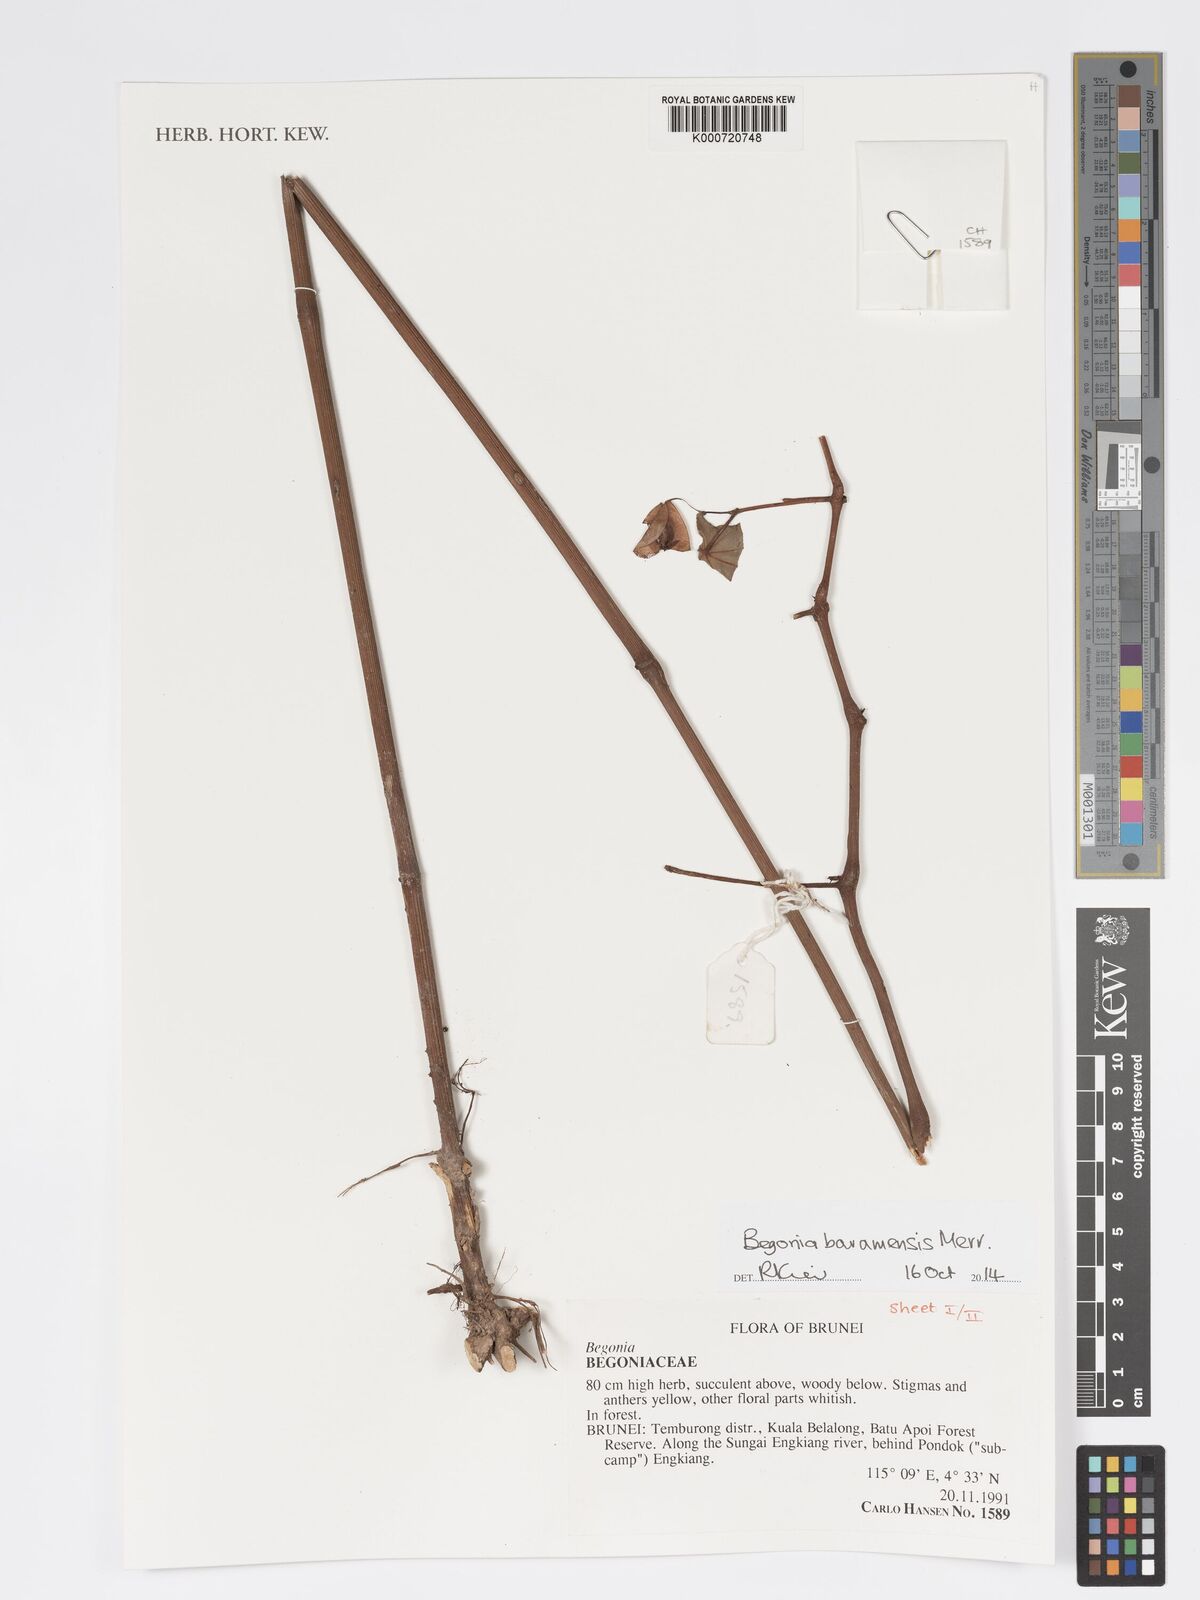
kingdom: Plantae
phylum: Tracheophyta
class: Magnoliopsida
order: Cucurbitales
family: Begoniaceae
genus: Begonia
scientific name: Begonia baramensis
